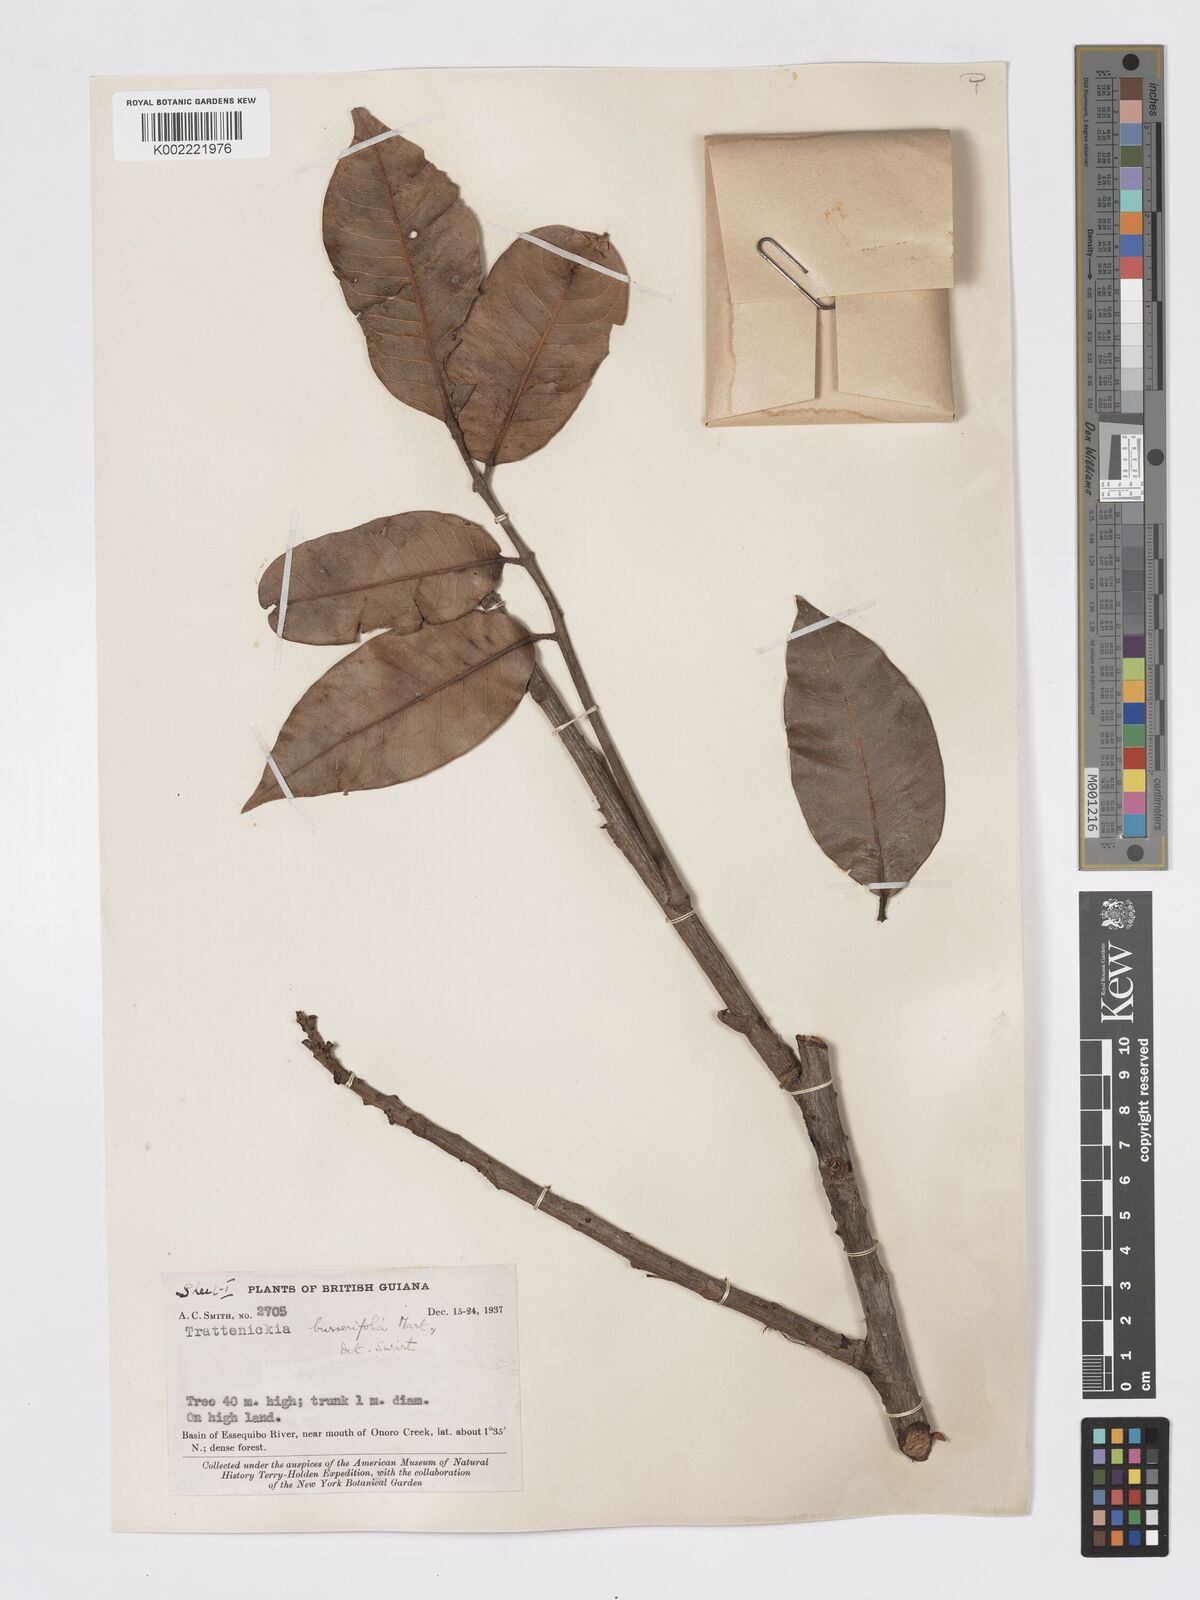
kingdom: Plantae
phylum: Tracheophyta
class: Magnoliopsida
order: Sapindales
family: Burseraceae
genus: Trattinnickia
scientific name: Trattinnickia burserifolia
